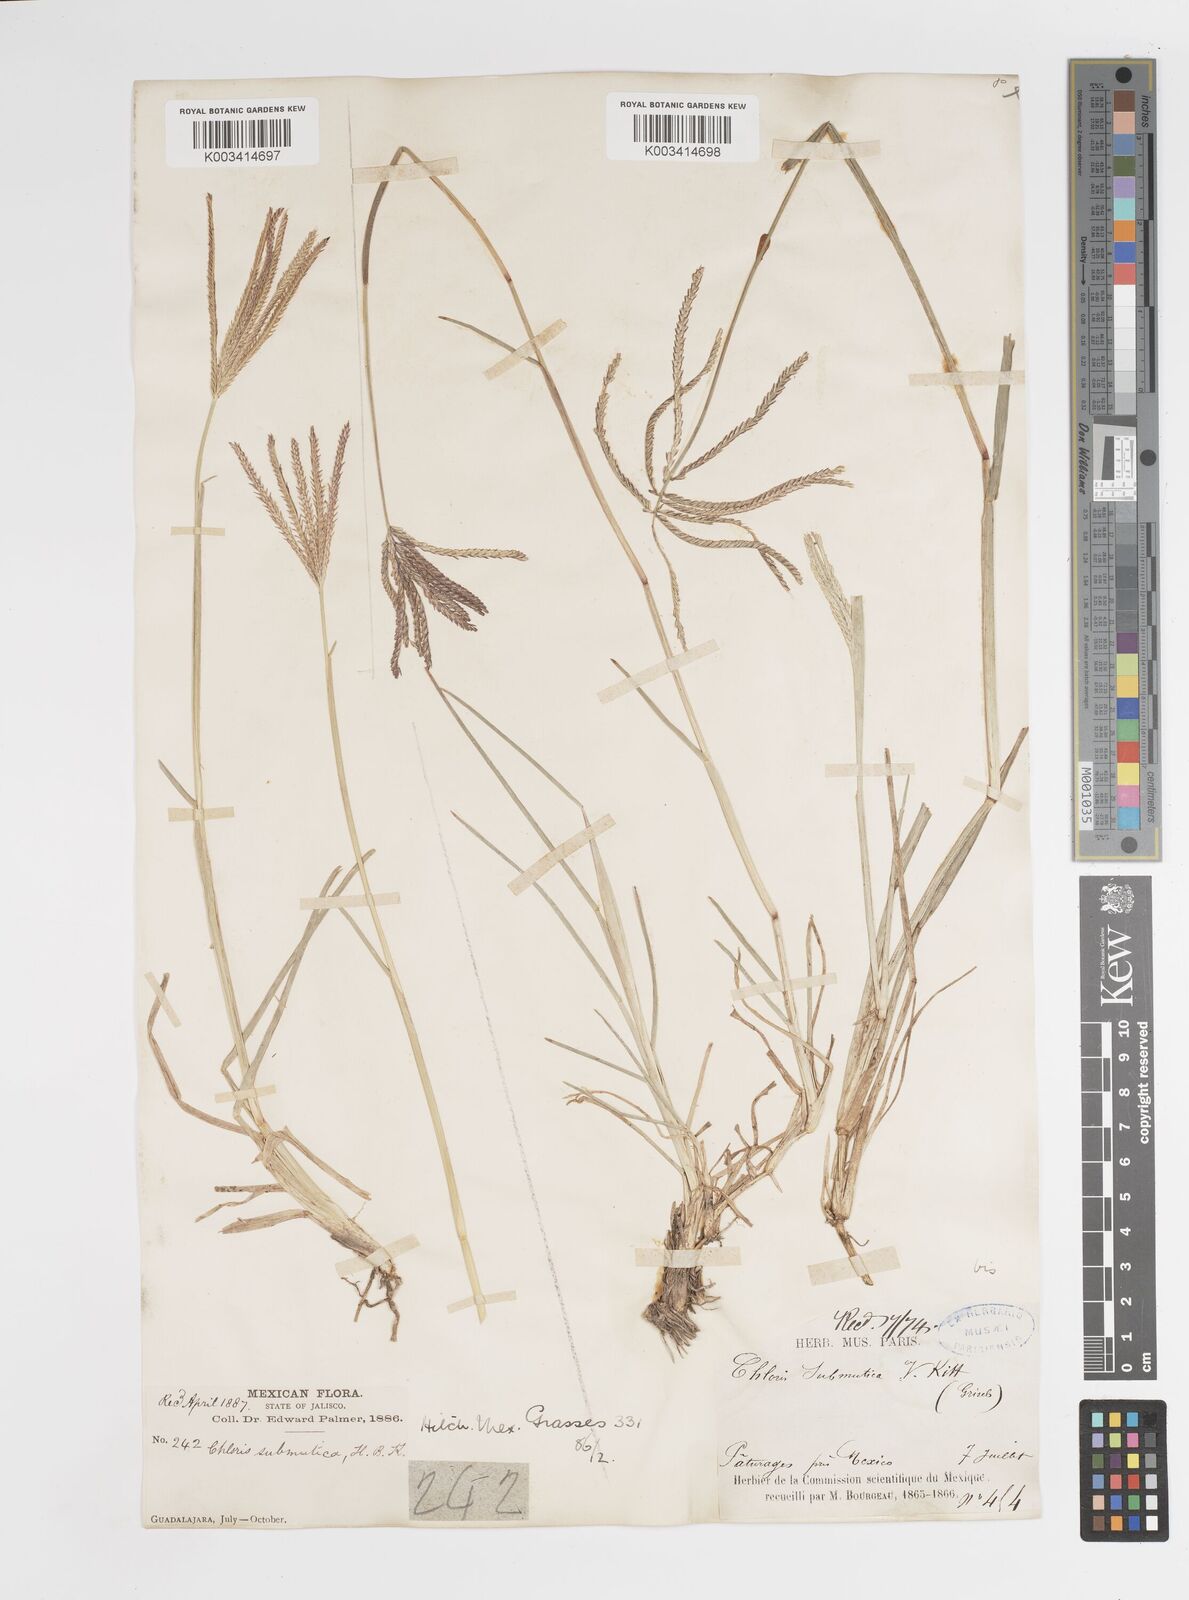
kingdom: Plantae
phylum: Tracheophyta
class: Liliopsida
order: Poales
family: Poaceae
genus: Chloris
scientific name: Chloris submutica
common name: Mexican windmill grass
